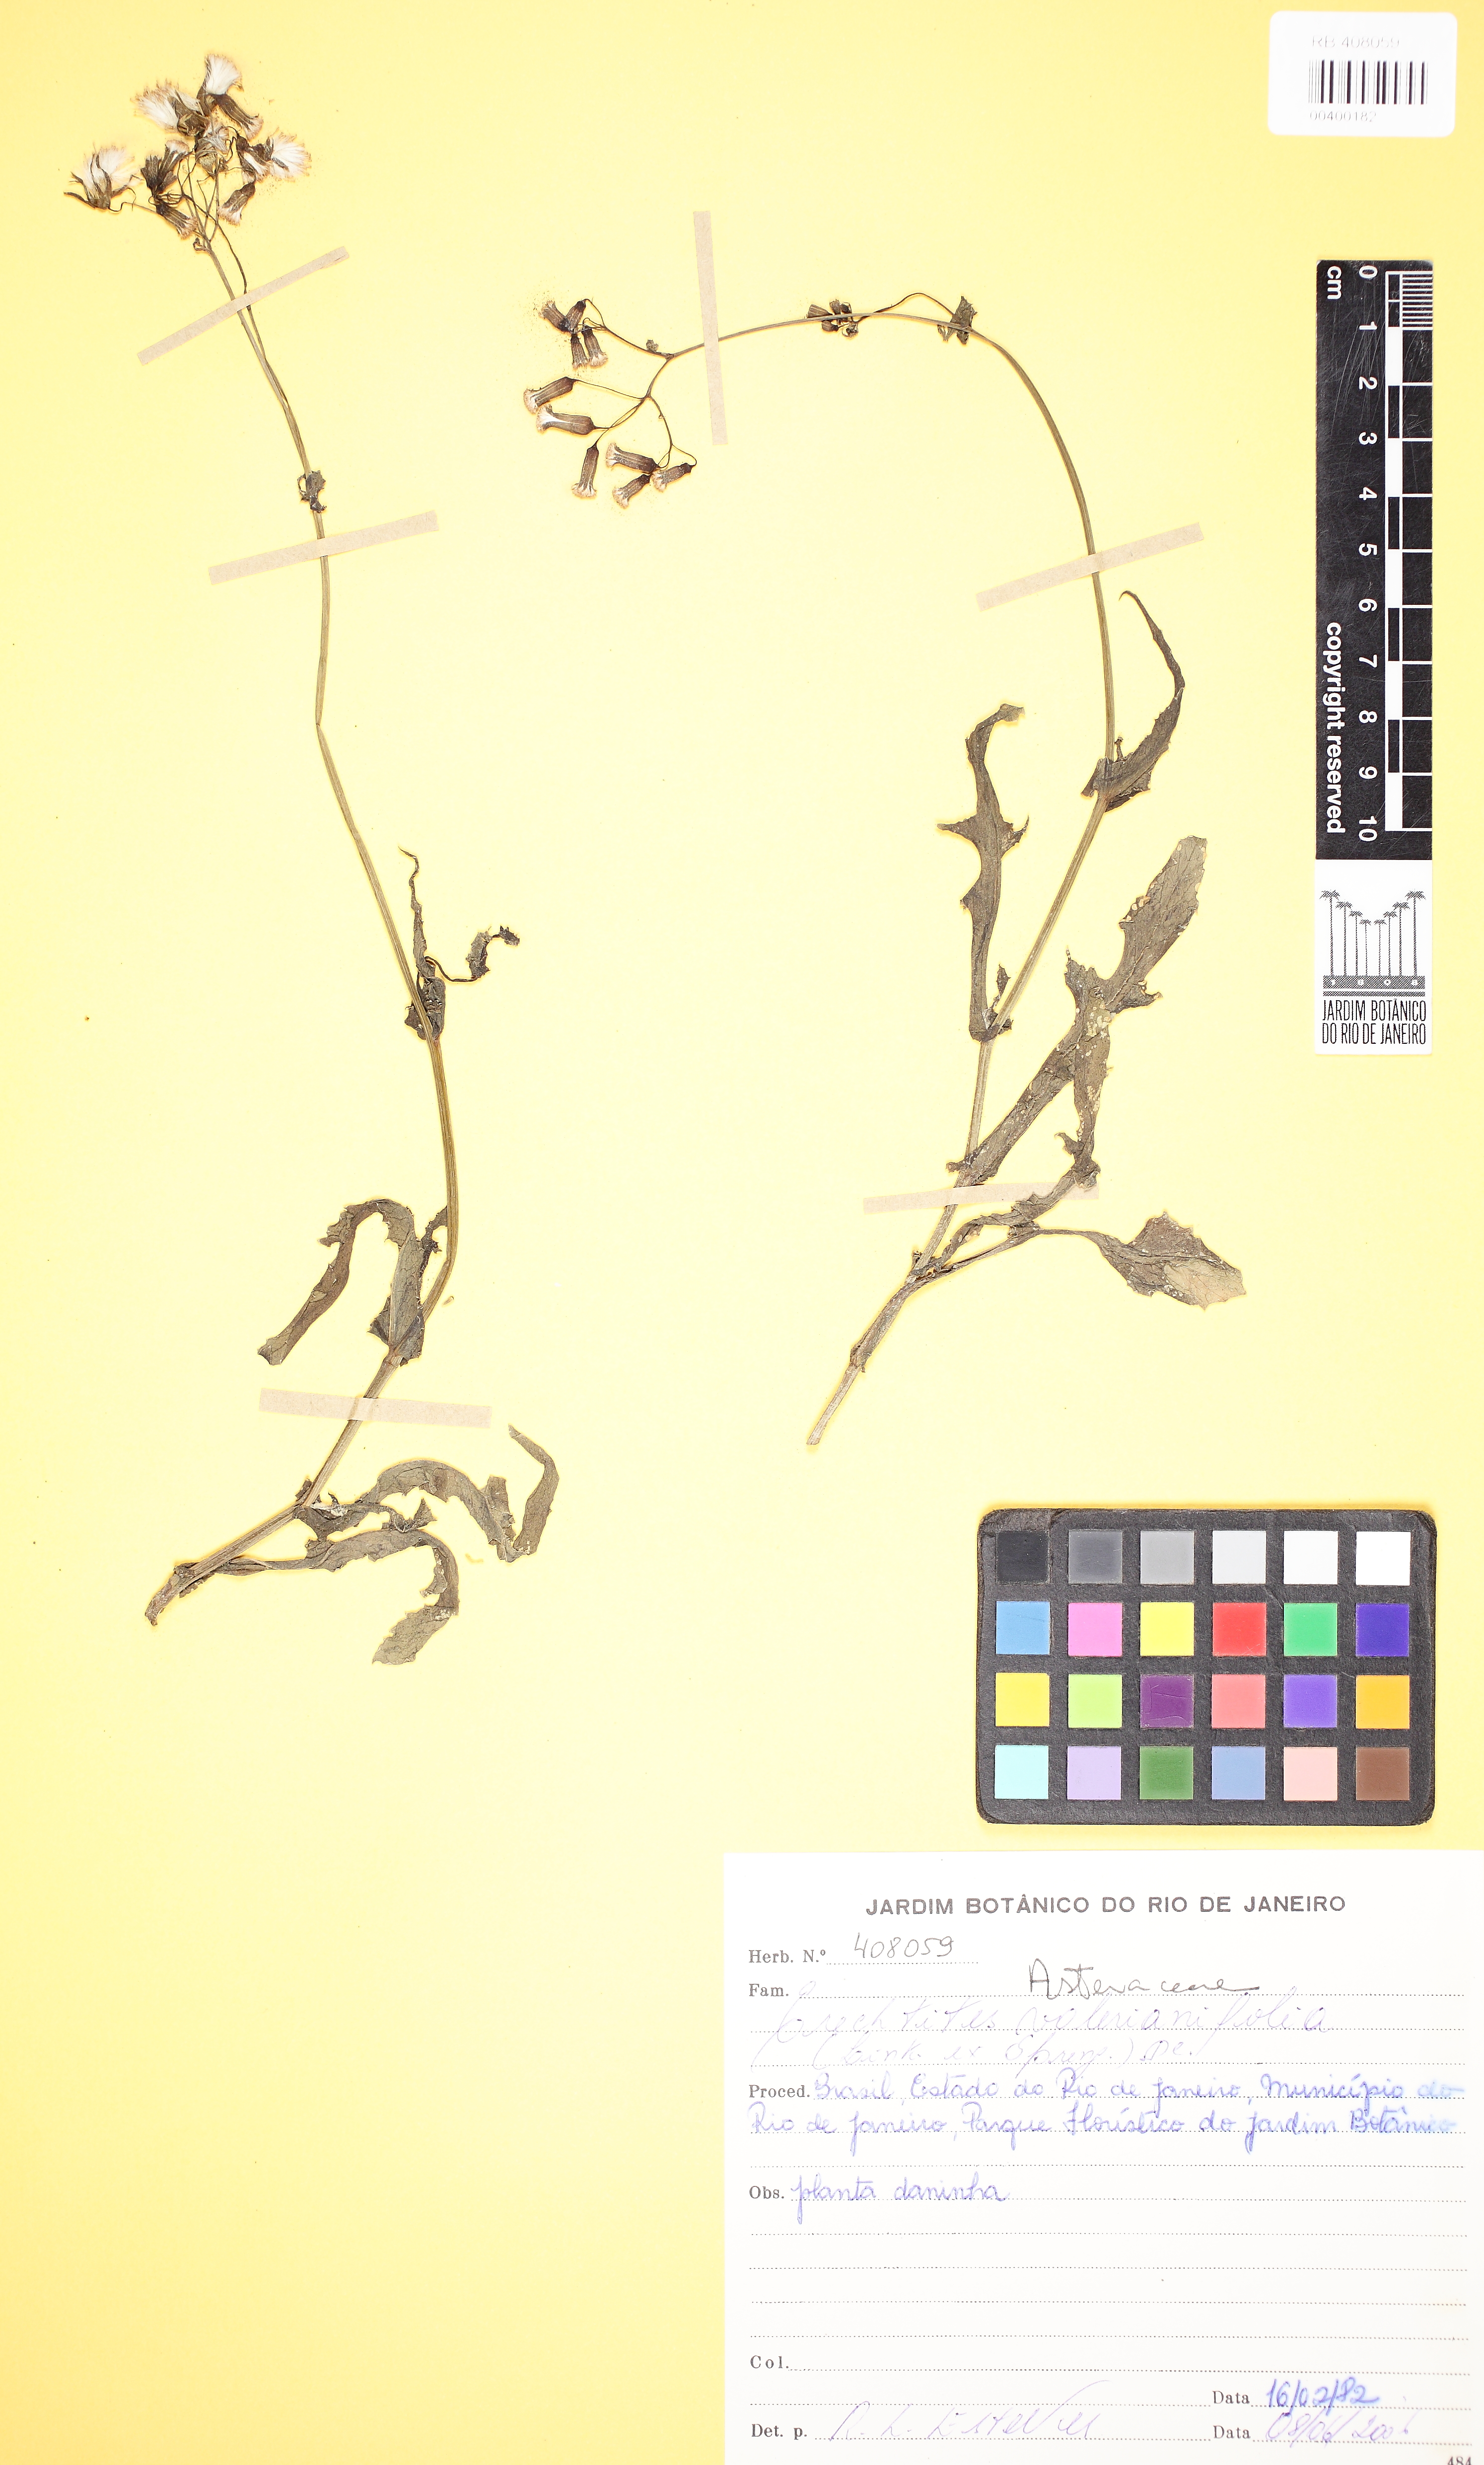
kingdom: Plantae
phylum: Tracheophyta
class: Magnoliopsida
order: Asterales
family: Asteraceae
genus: Erechtites
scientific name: Erechtites valerianifolius
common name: Tropical burnweed
